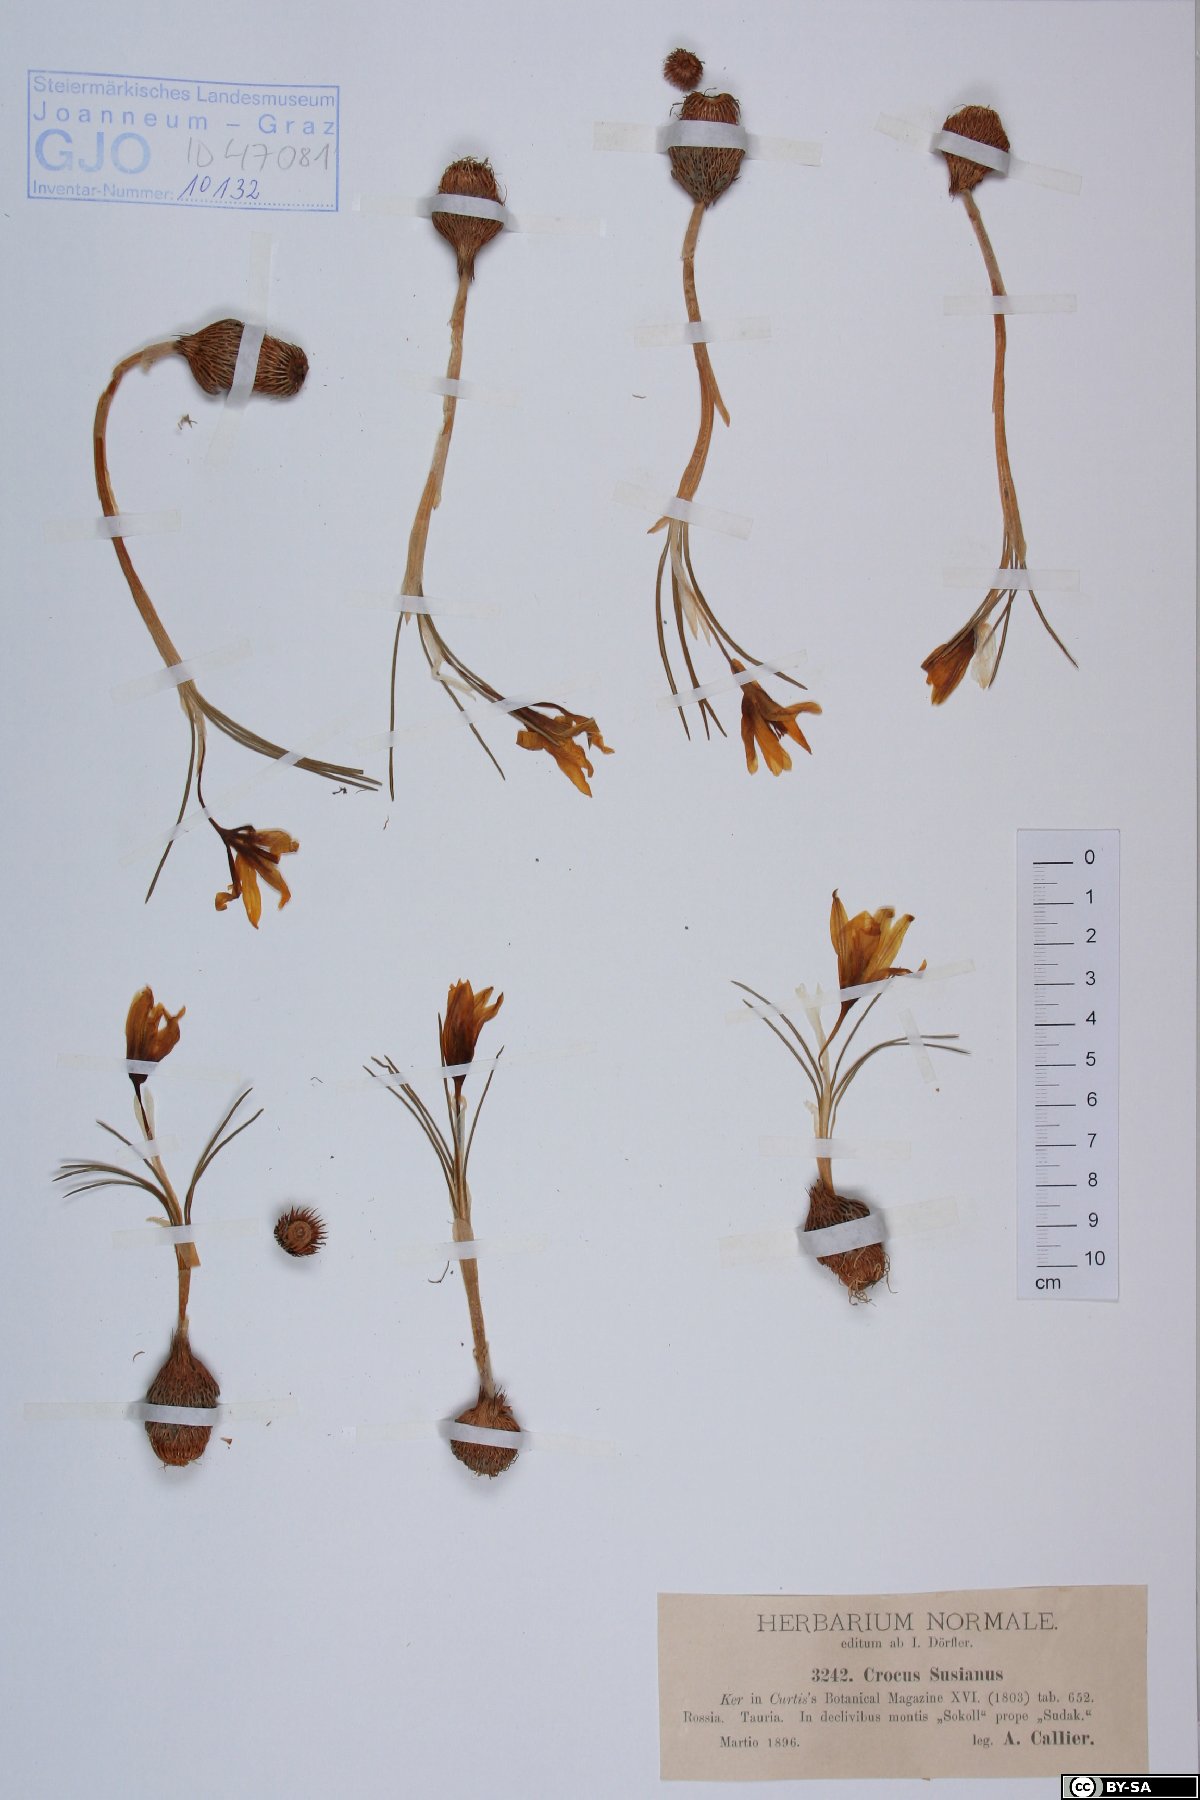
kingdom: Plantae
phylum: Tracheophyta
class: Liliopsida
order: Asparagales
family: Iridaceae
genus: Crocus
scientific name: Crocus angustifolius
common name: Cloth of gold
